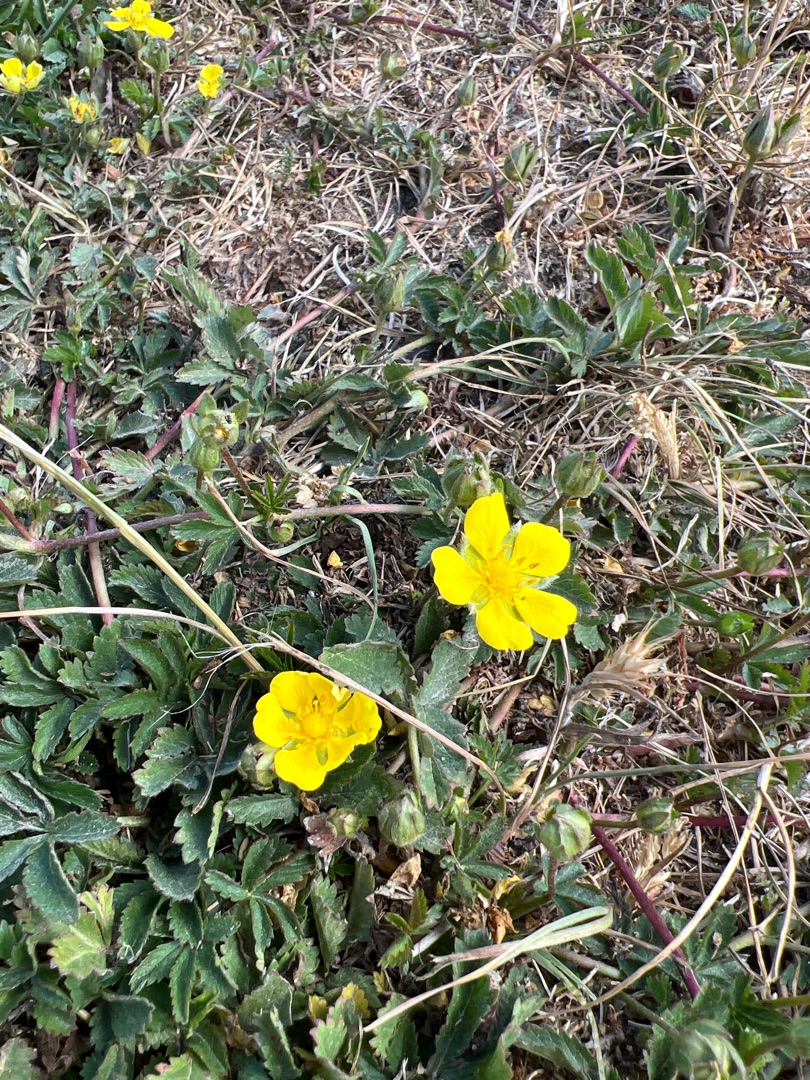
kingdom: Plantae
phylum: Tracheophyta
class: Magnoliopsida
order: Rosales
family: Rosaceae
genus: Potentilla
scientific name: Potentilla reptans
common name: Krybende potentil
